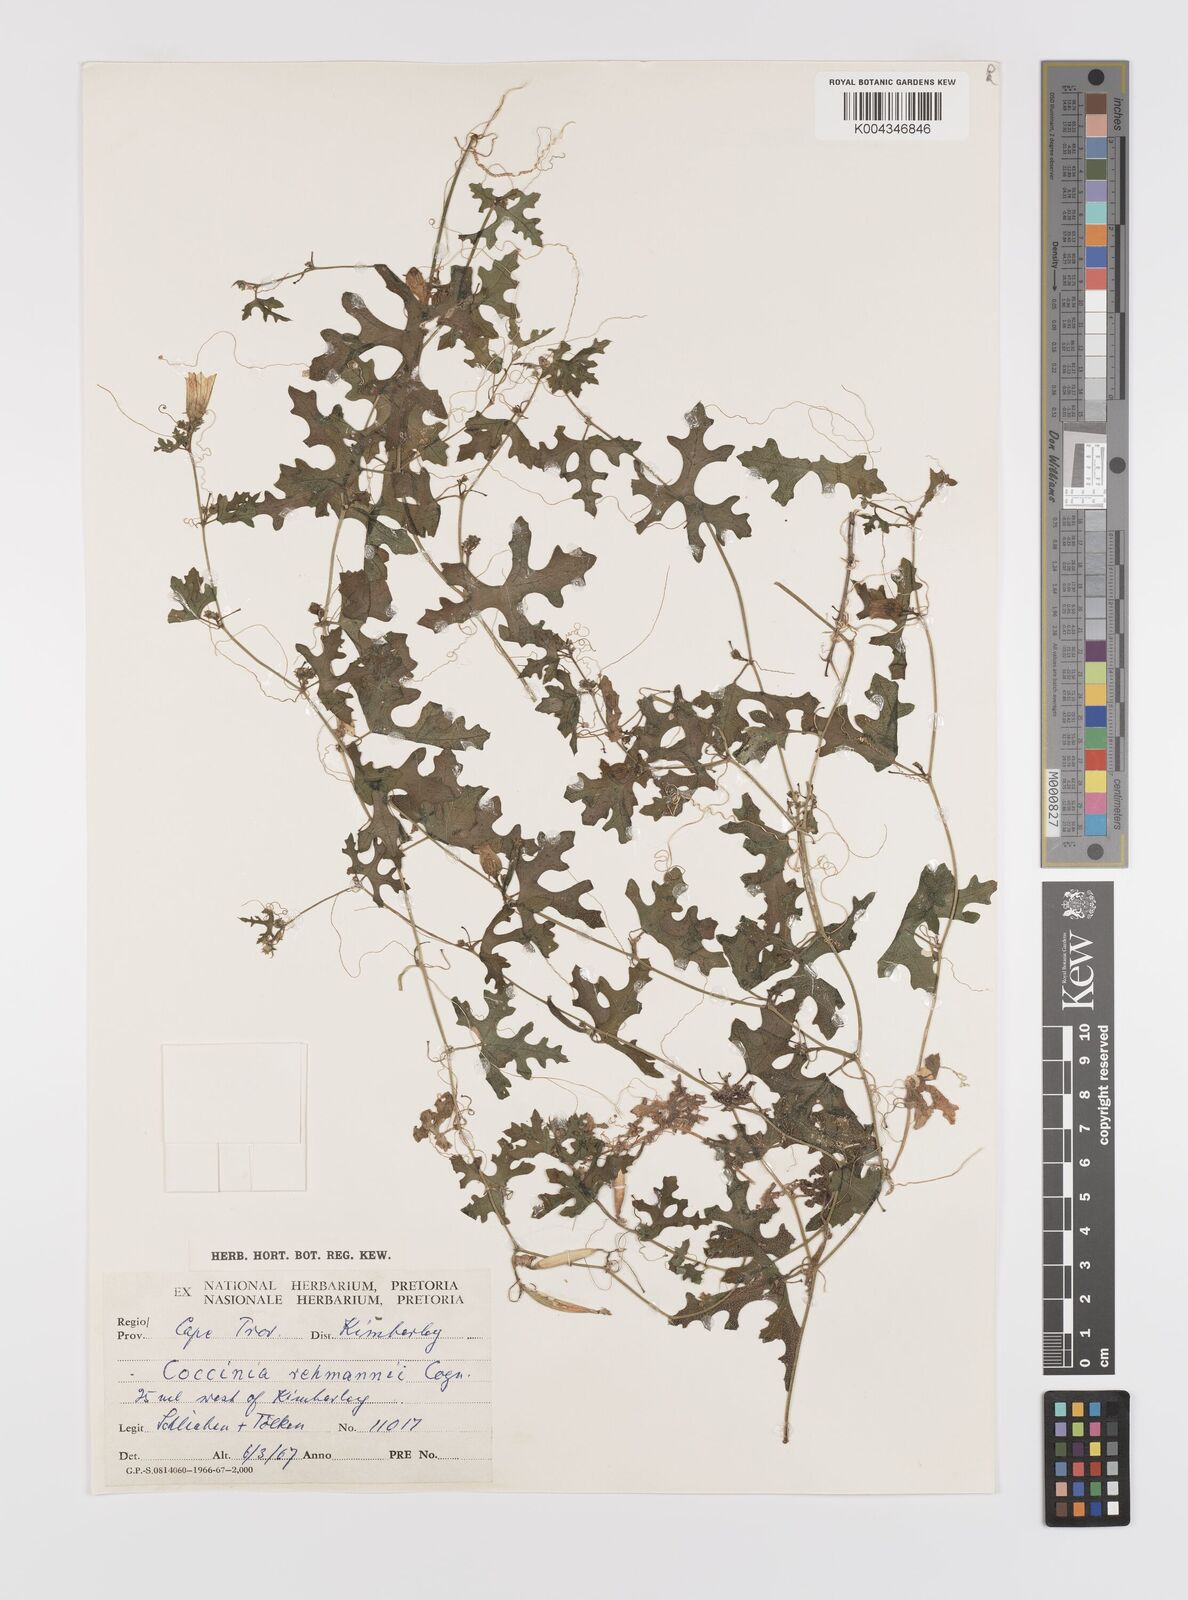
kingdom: Plantae
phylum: Tracheophyta
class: Magnoliopsida
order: Cucurbitales
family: Cucurbitaceae
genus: Coccinia
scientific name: Coccinia rehmannii
